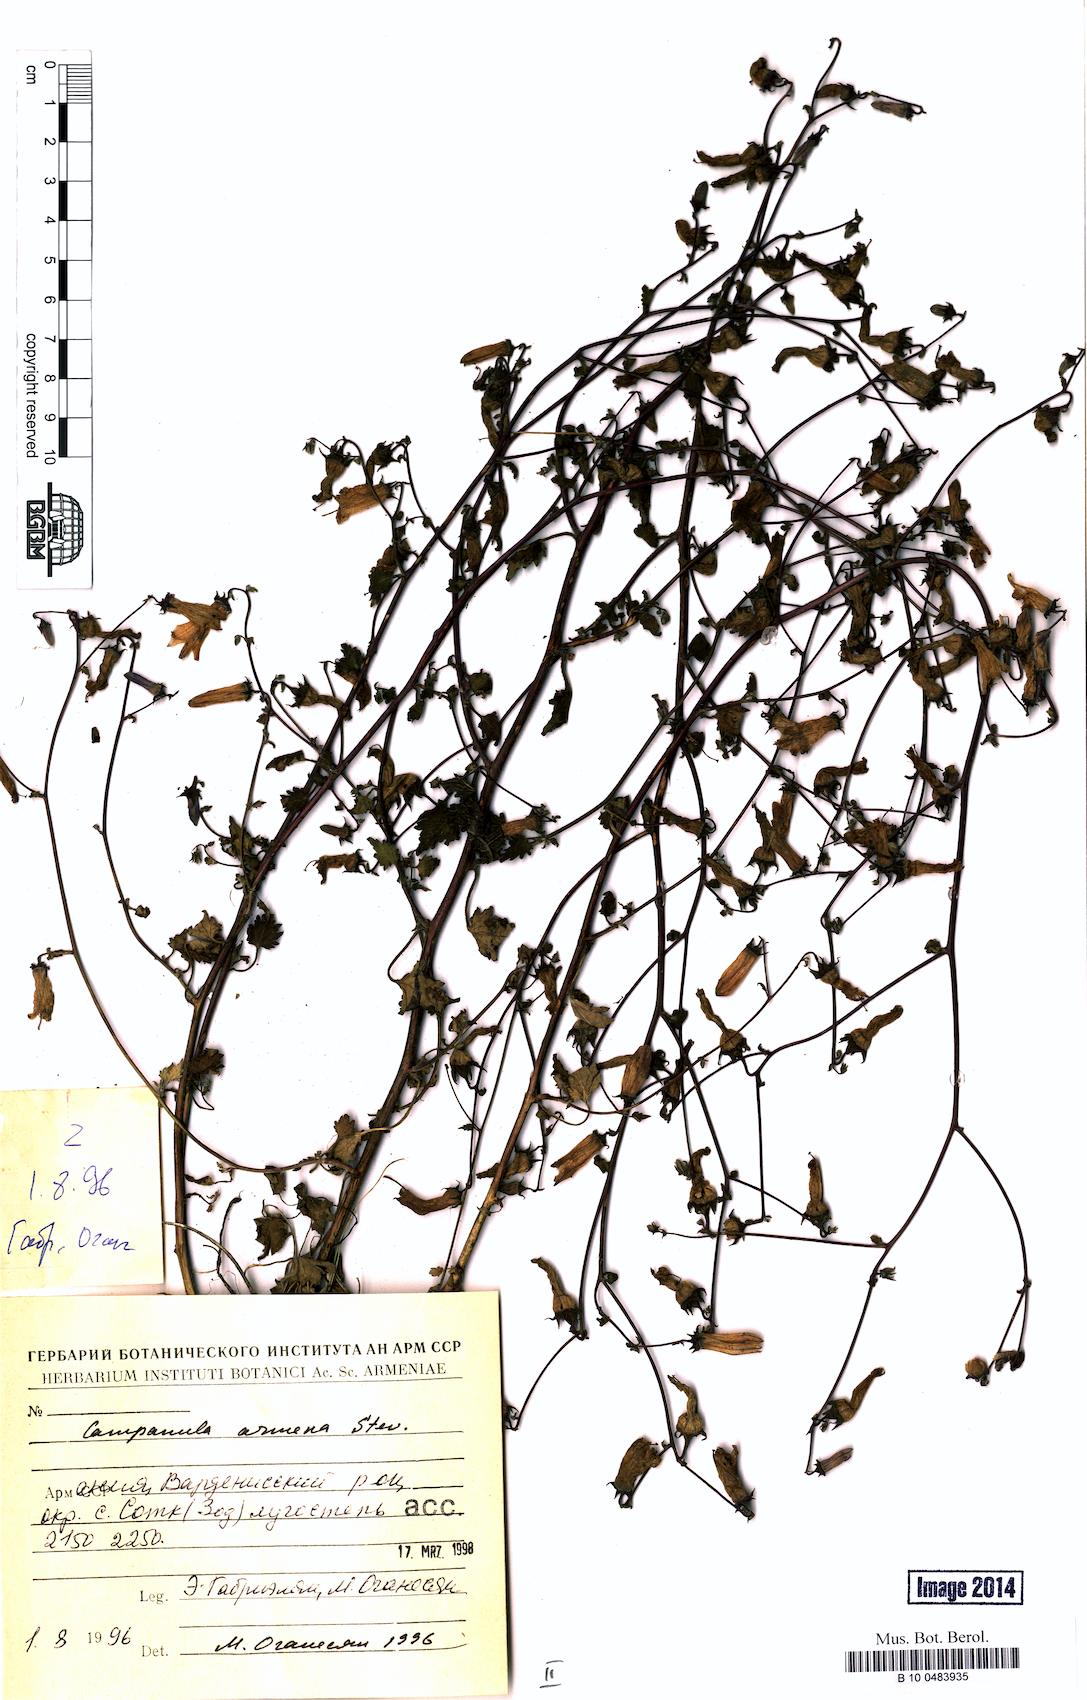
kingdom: Plantae
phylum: Tracheophyta
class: Magnoliopsida
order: Asterales
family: Campanulaceae
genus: Campanula
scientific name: Campanula armena
